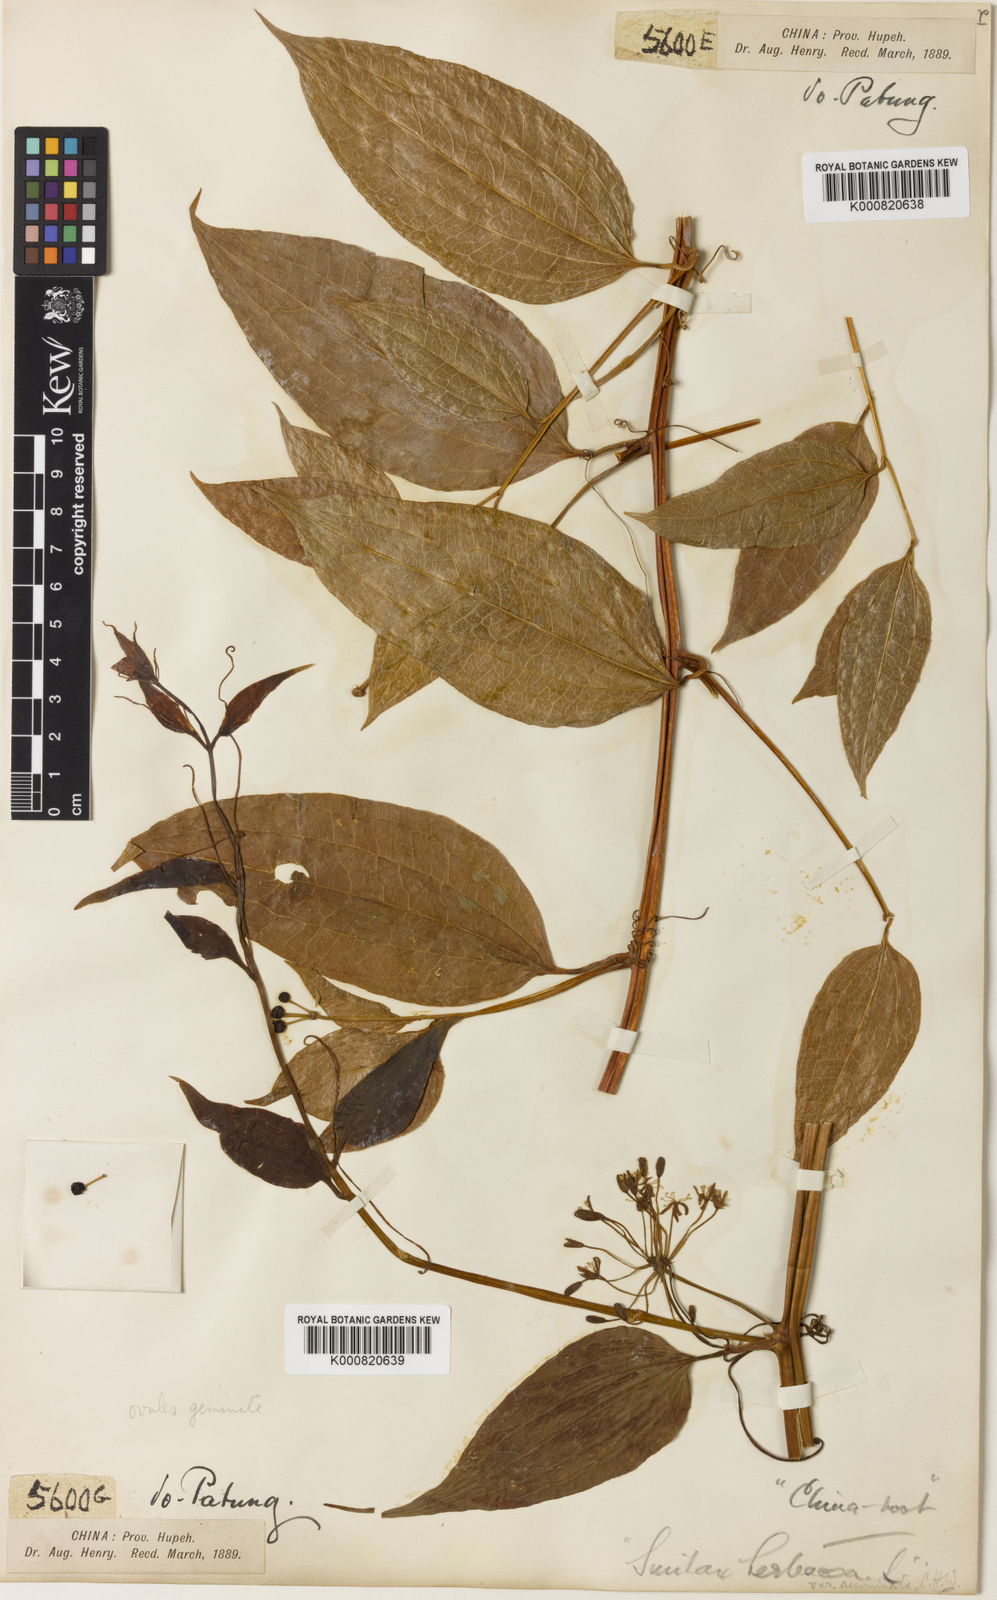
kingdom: Plantae
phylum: Tracheophyta
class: Liliopsida
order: Liliales
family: Smilacaceae
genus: Smilax
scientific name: Smilax riparia
